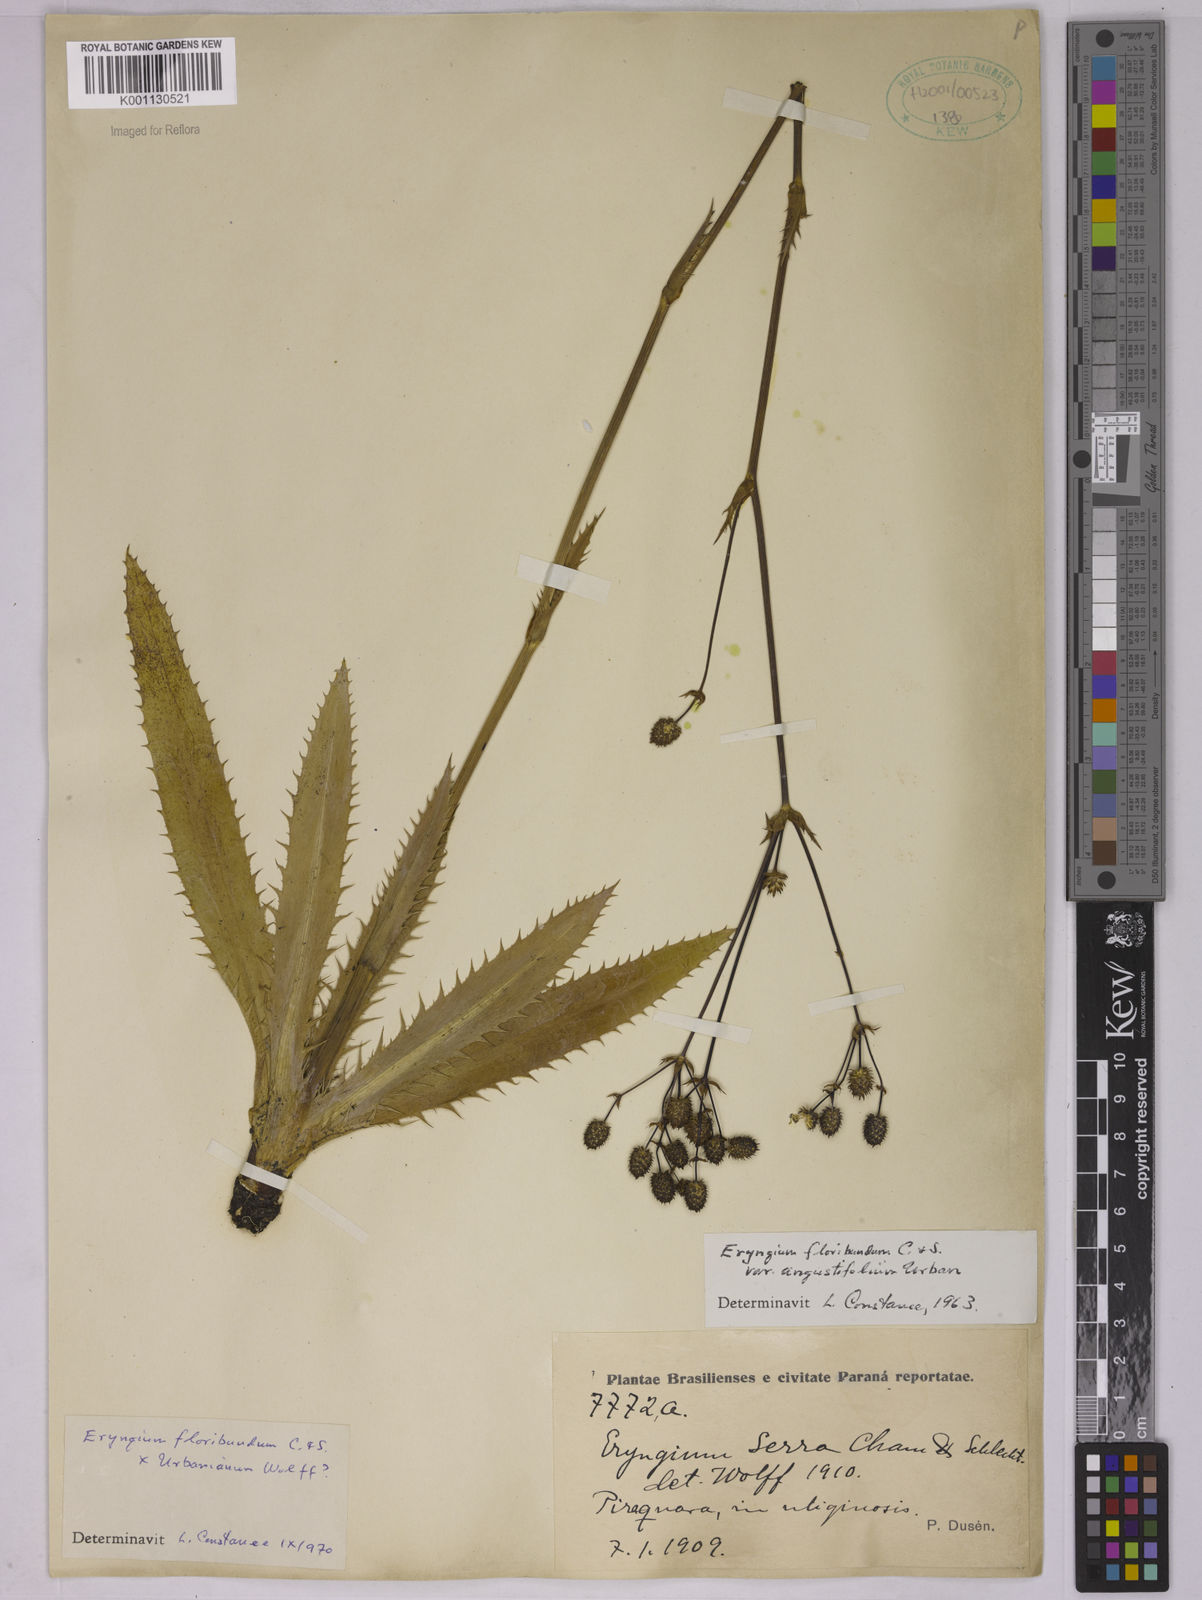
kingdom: Plantae
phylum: Tracheophyta
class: Magnoliopsida
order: Apiales
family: Apiaceae
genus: Eryngium
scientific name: Eryngium floribundum
